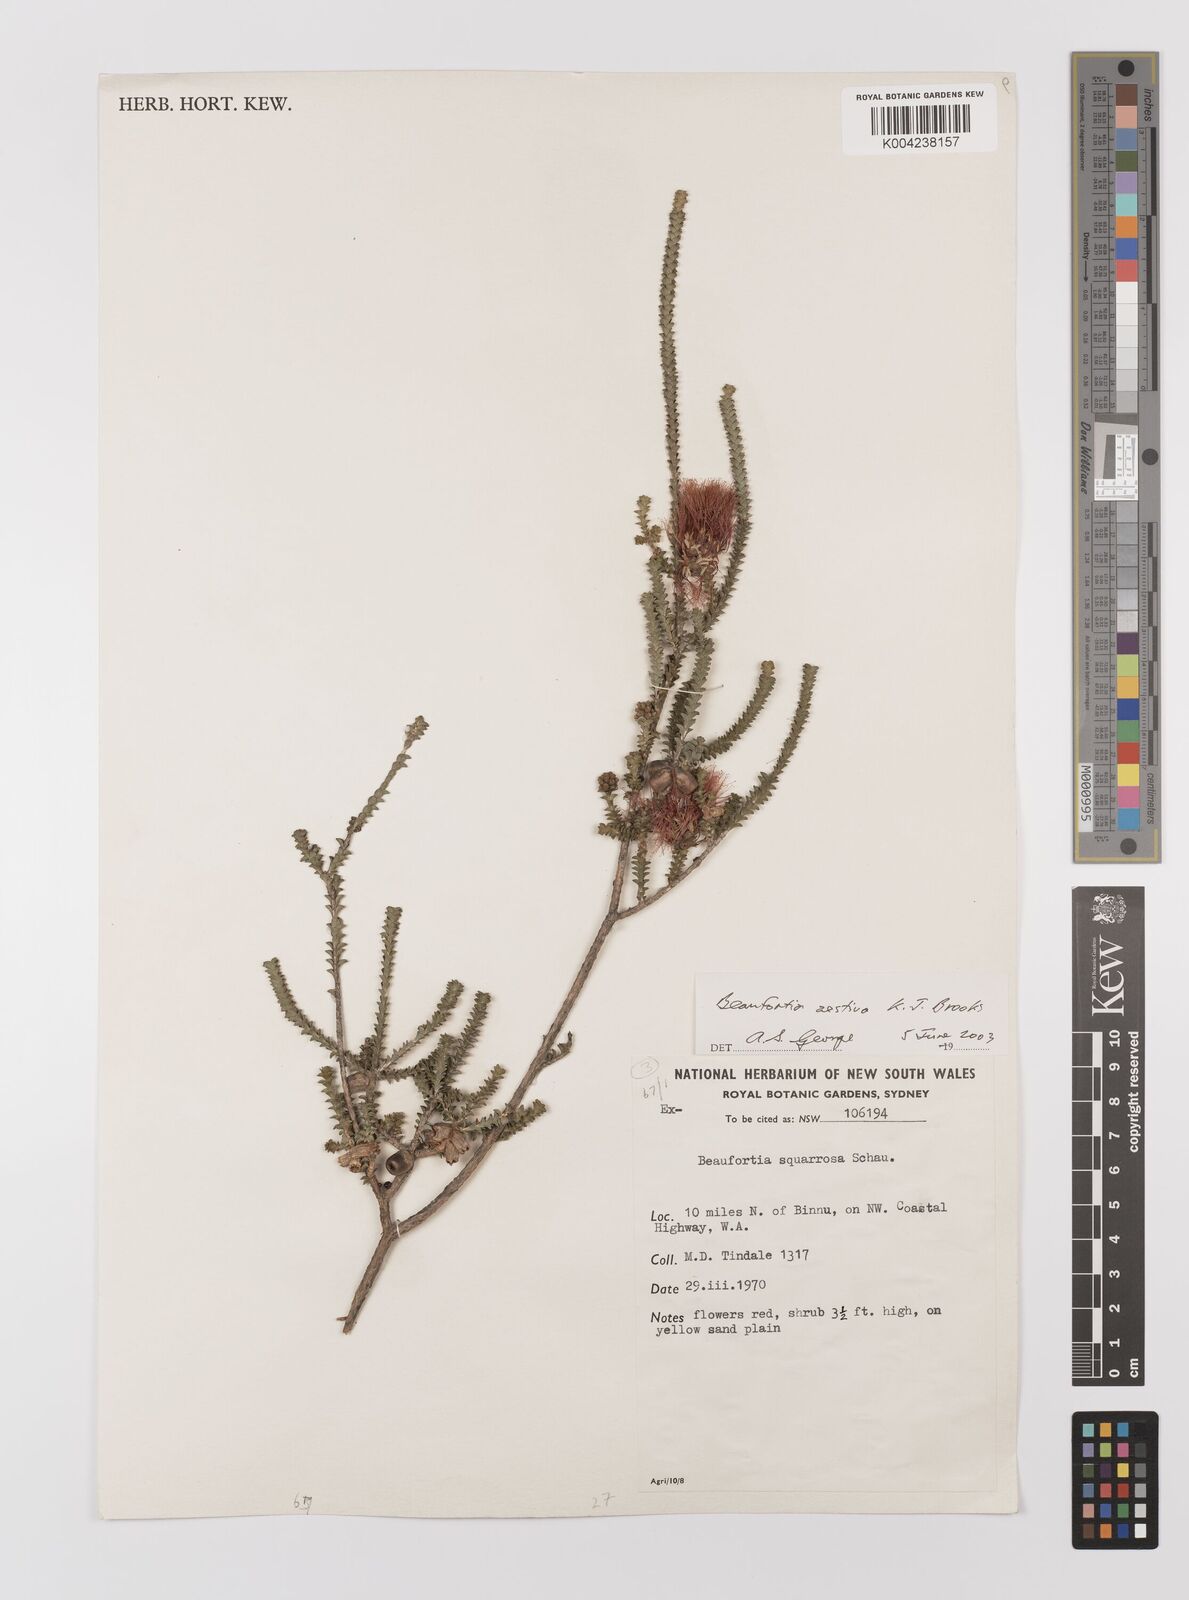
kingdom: Plantae
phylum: Tracheophyta
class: Magnoliopsida
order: Myrtales
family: Myrtaceae
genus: Melaleuca
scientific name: Melaleuca aestiva
